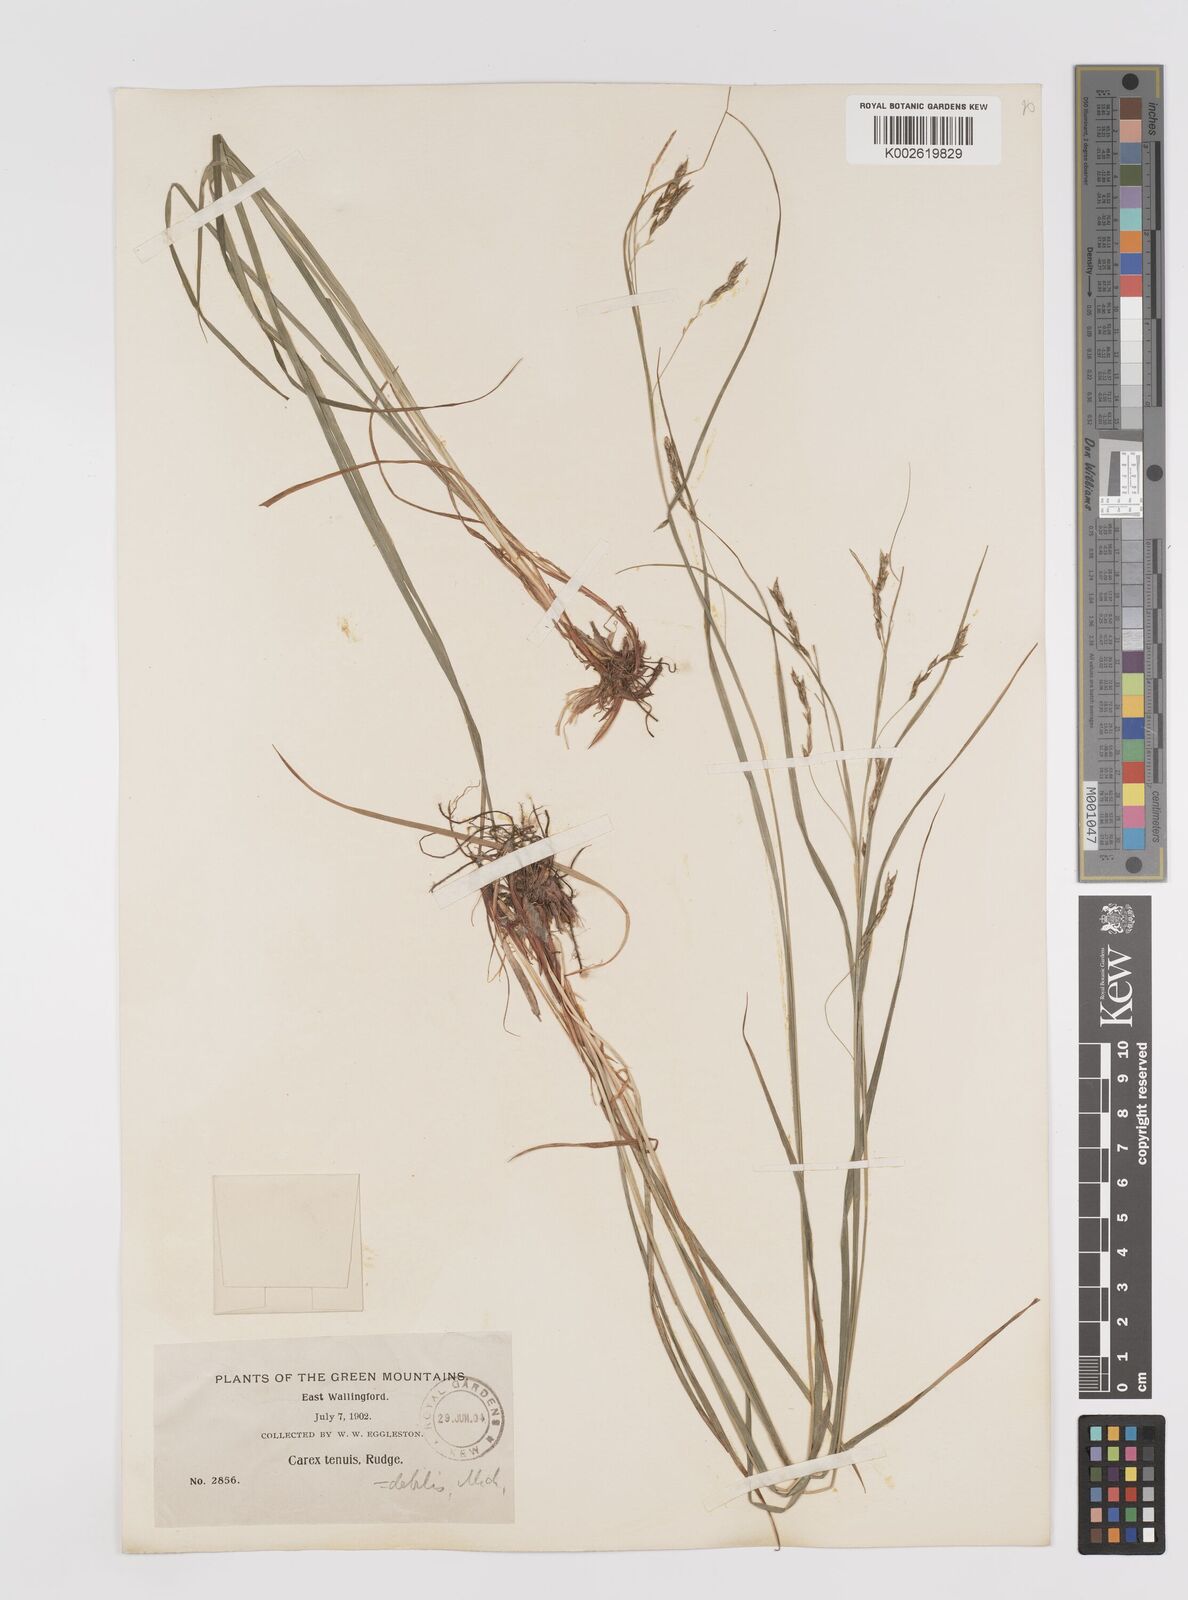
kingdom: Plantae
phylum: Tracheophyta
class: Liliopsida
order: Poales
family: Cyperaceae
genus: Carex
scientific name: Carex debilis
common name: White-edge sedge
